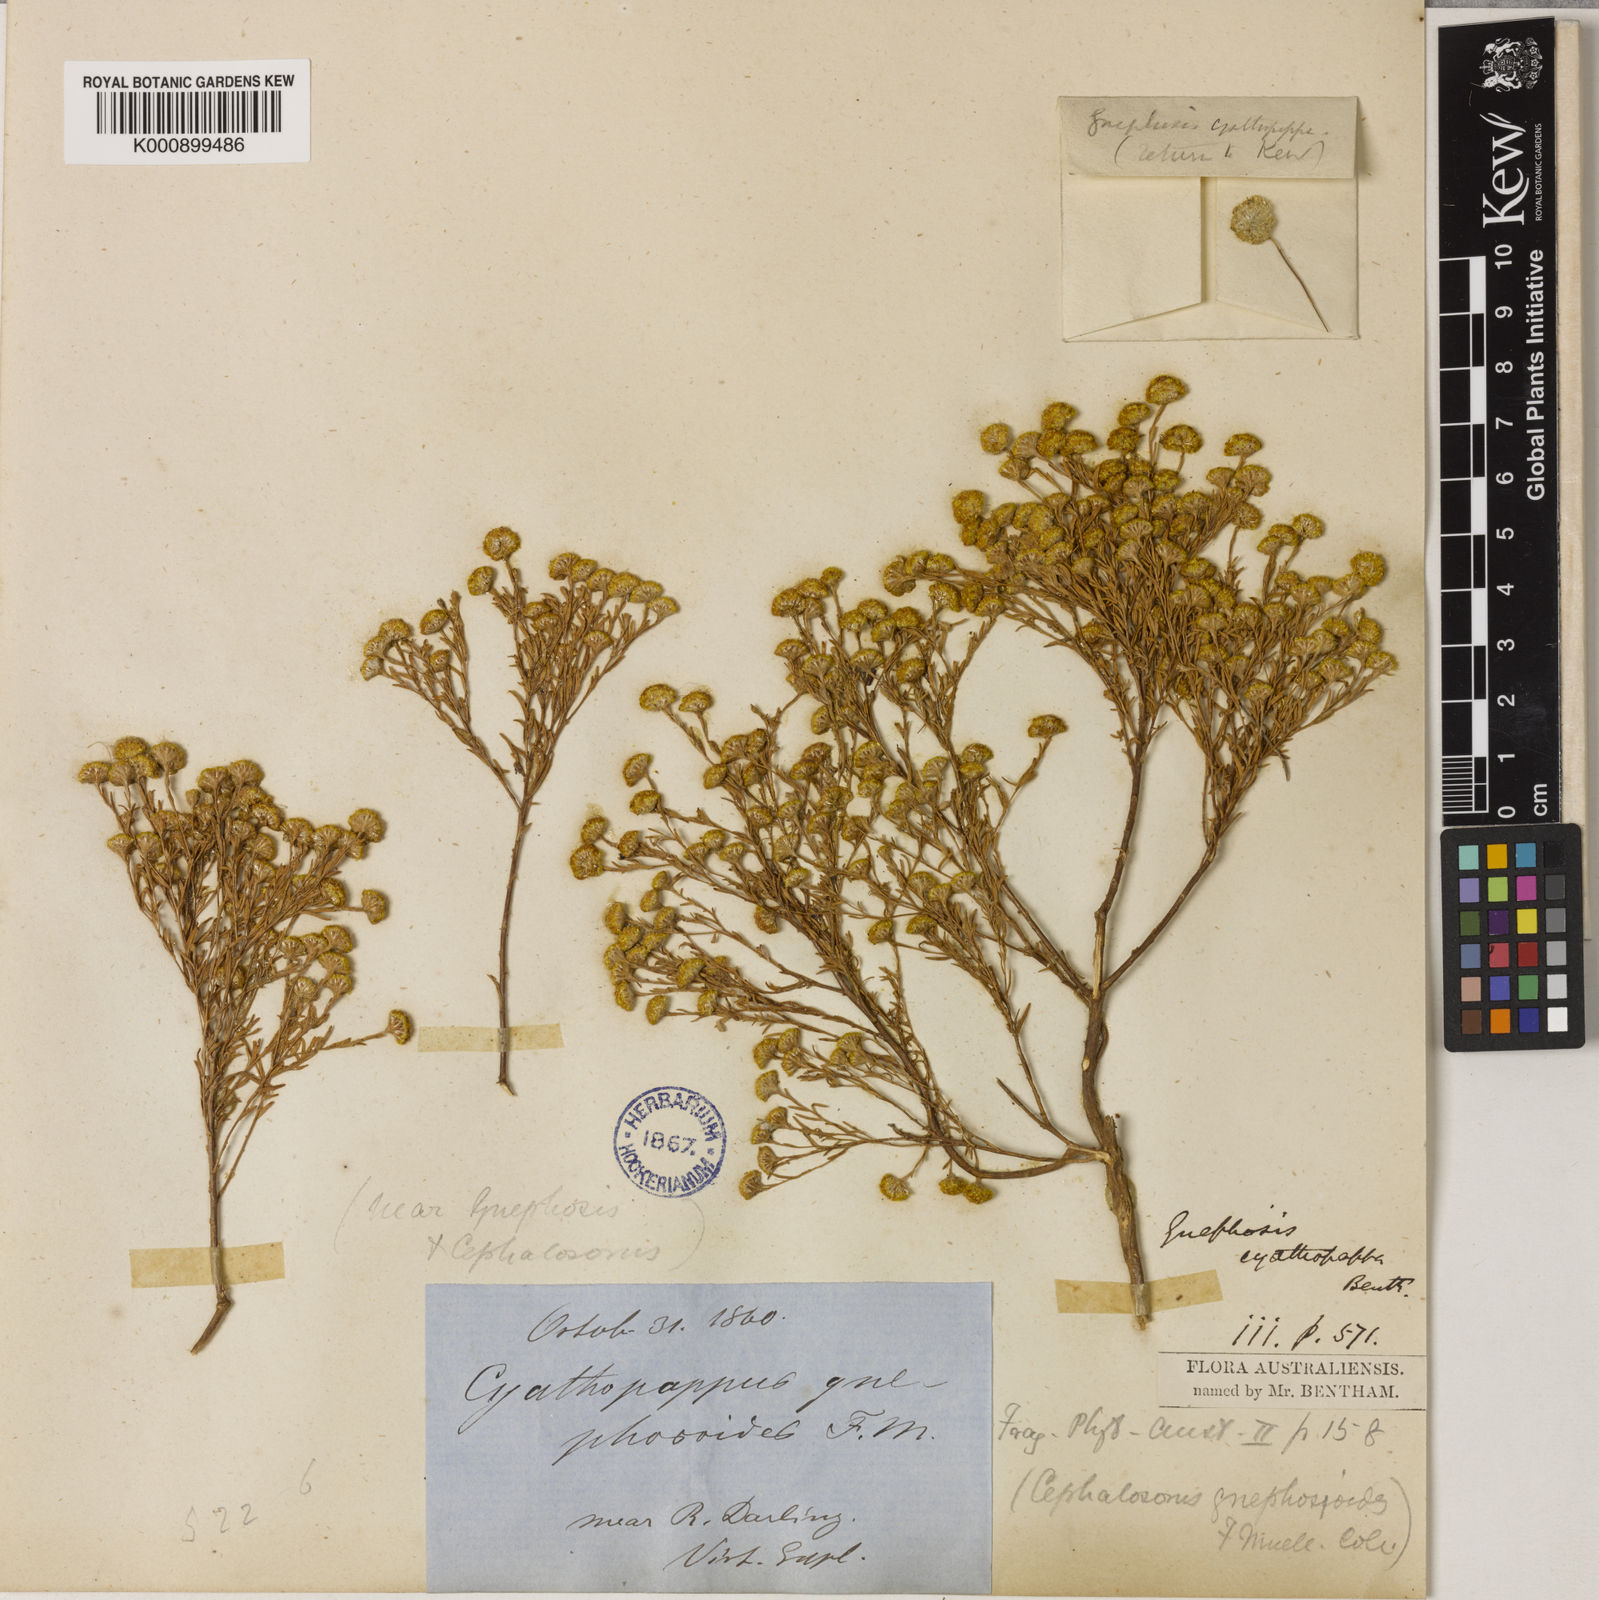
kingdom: Plantae
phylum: Tracheophyta
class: Magnoliopsida
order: Asterales
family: Asteraceae
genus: Gnephosis
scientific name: Gnephosis arachnoidea
